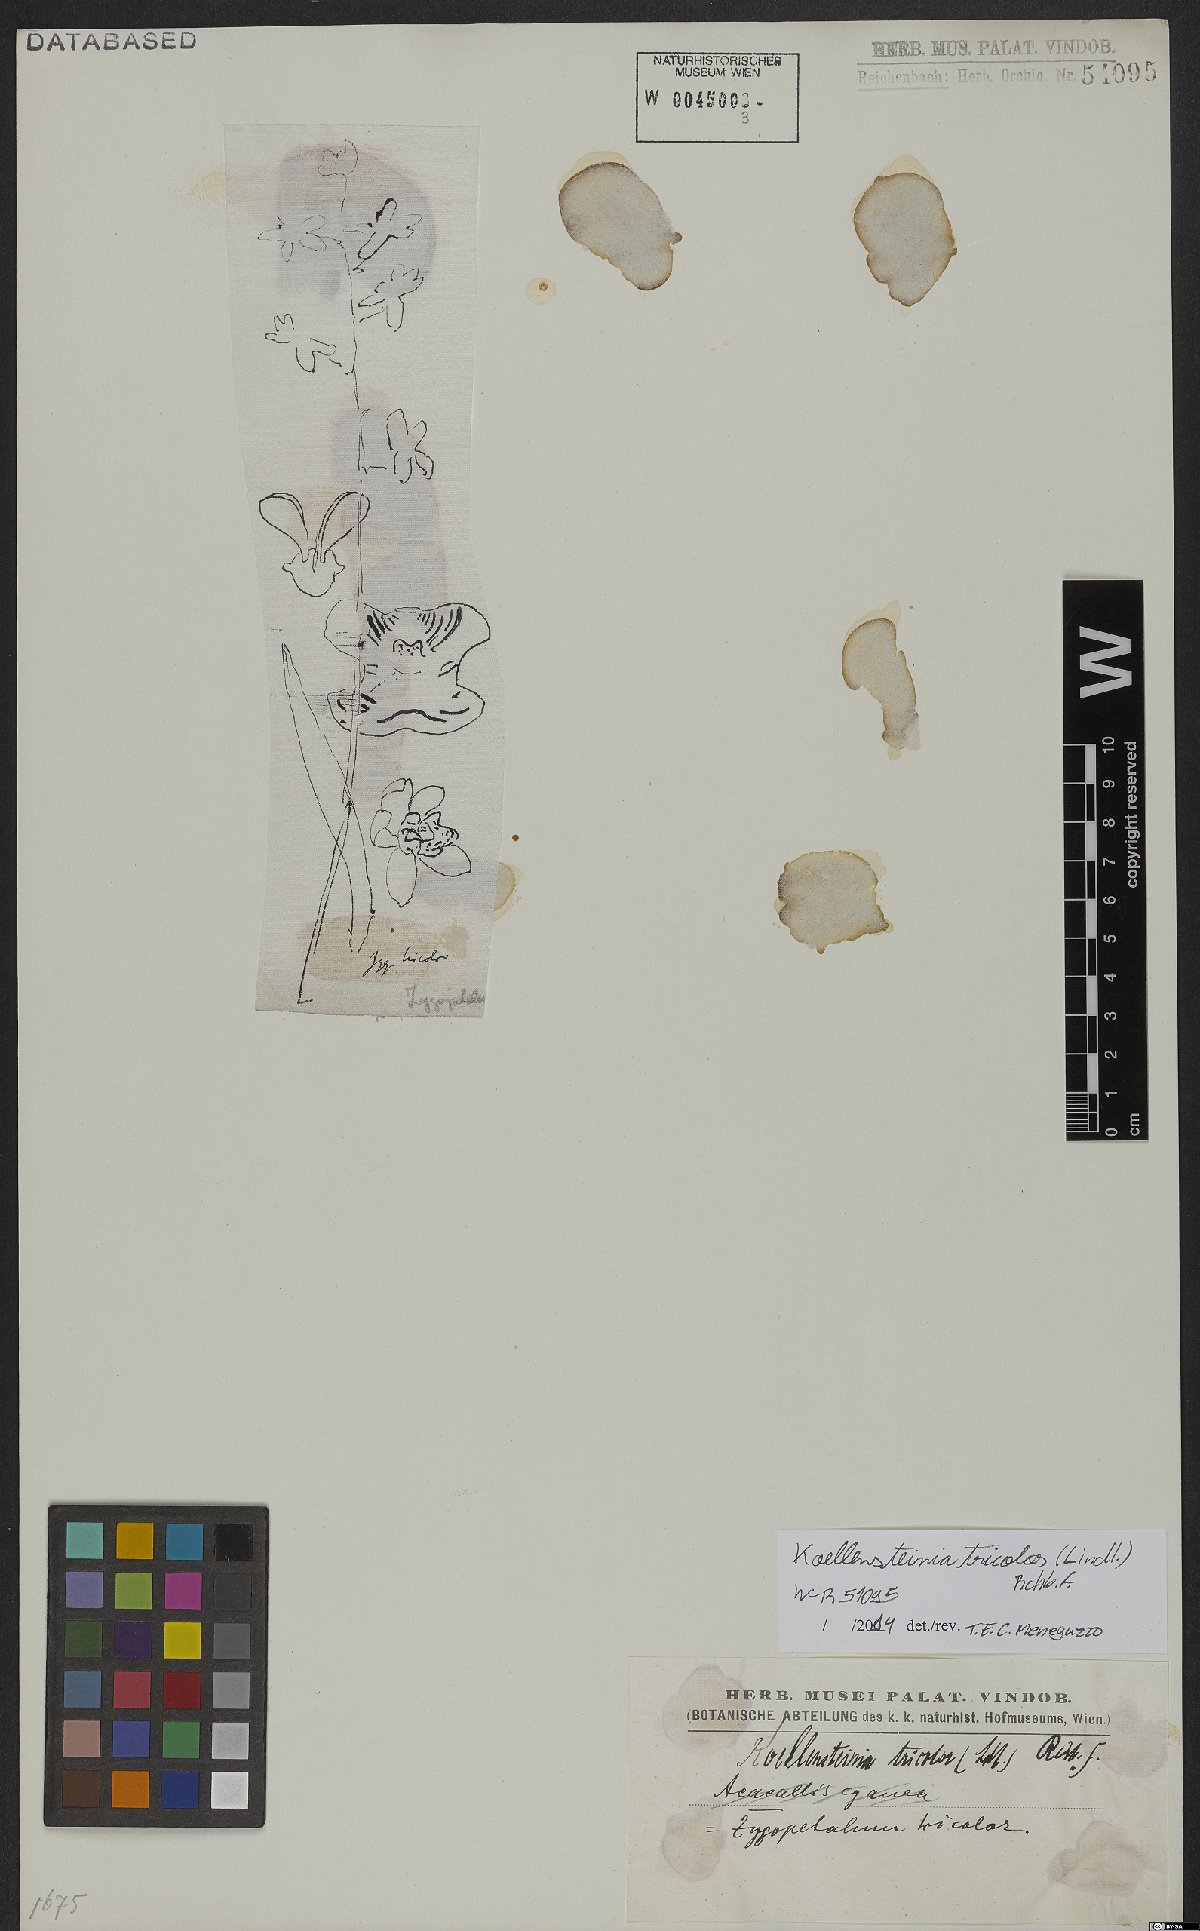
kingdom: Plantae
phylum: Tracheophyta
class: Liliopsida
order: Asparagales
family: Orchidaceae
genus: Koellensteinia
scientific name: Koellensteinia tricolor
